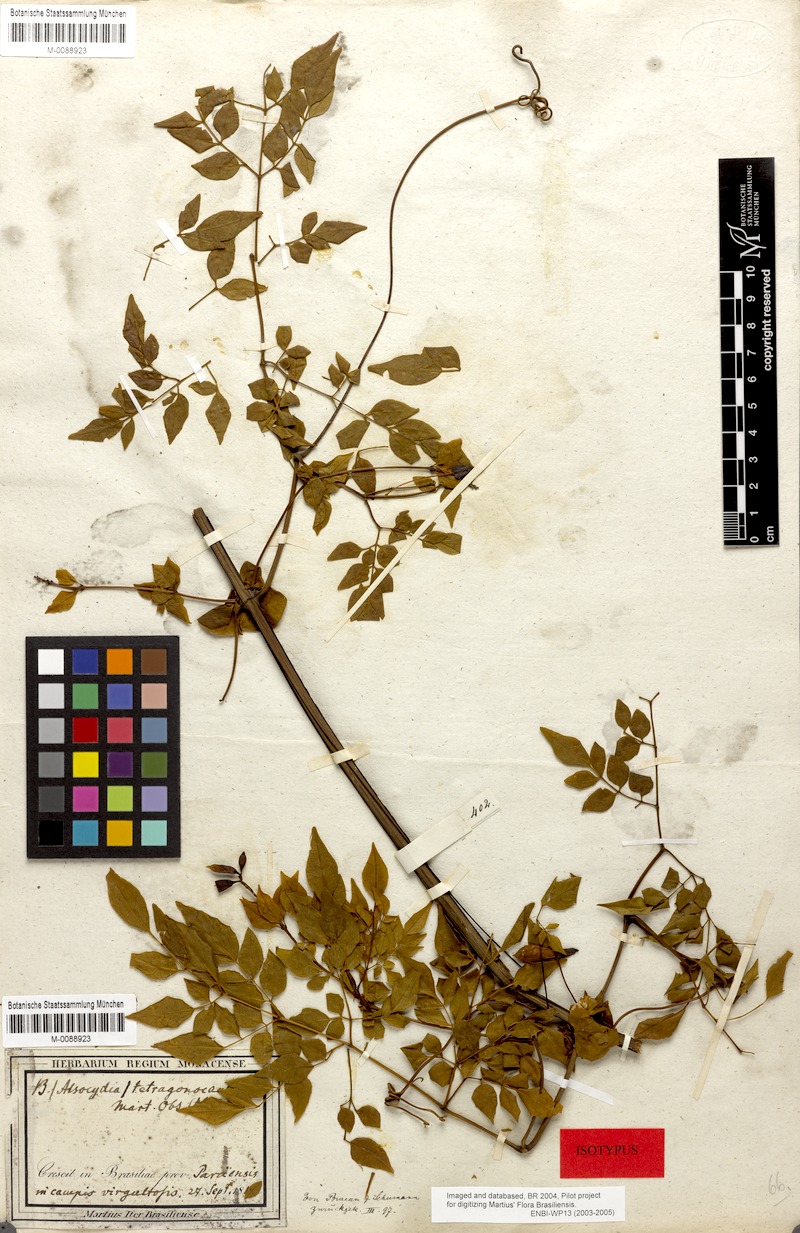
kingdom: Plantae
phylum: Tracheophyta
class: Magnoliopsida
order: Lamiales
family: Bignoniaceae
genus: Pleonotoma
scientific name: Pleonotoma jasminifolia
